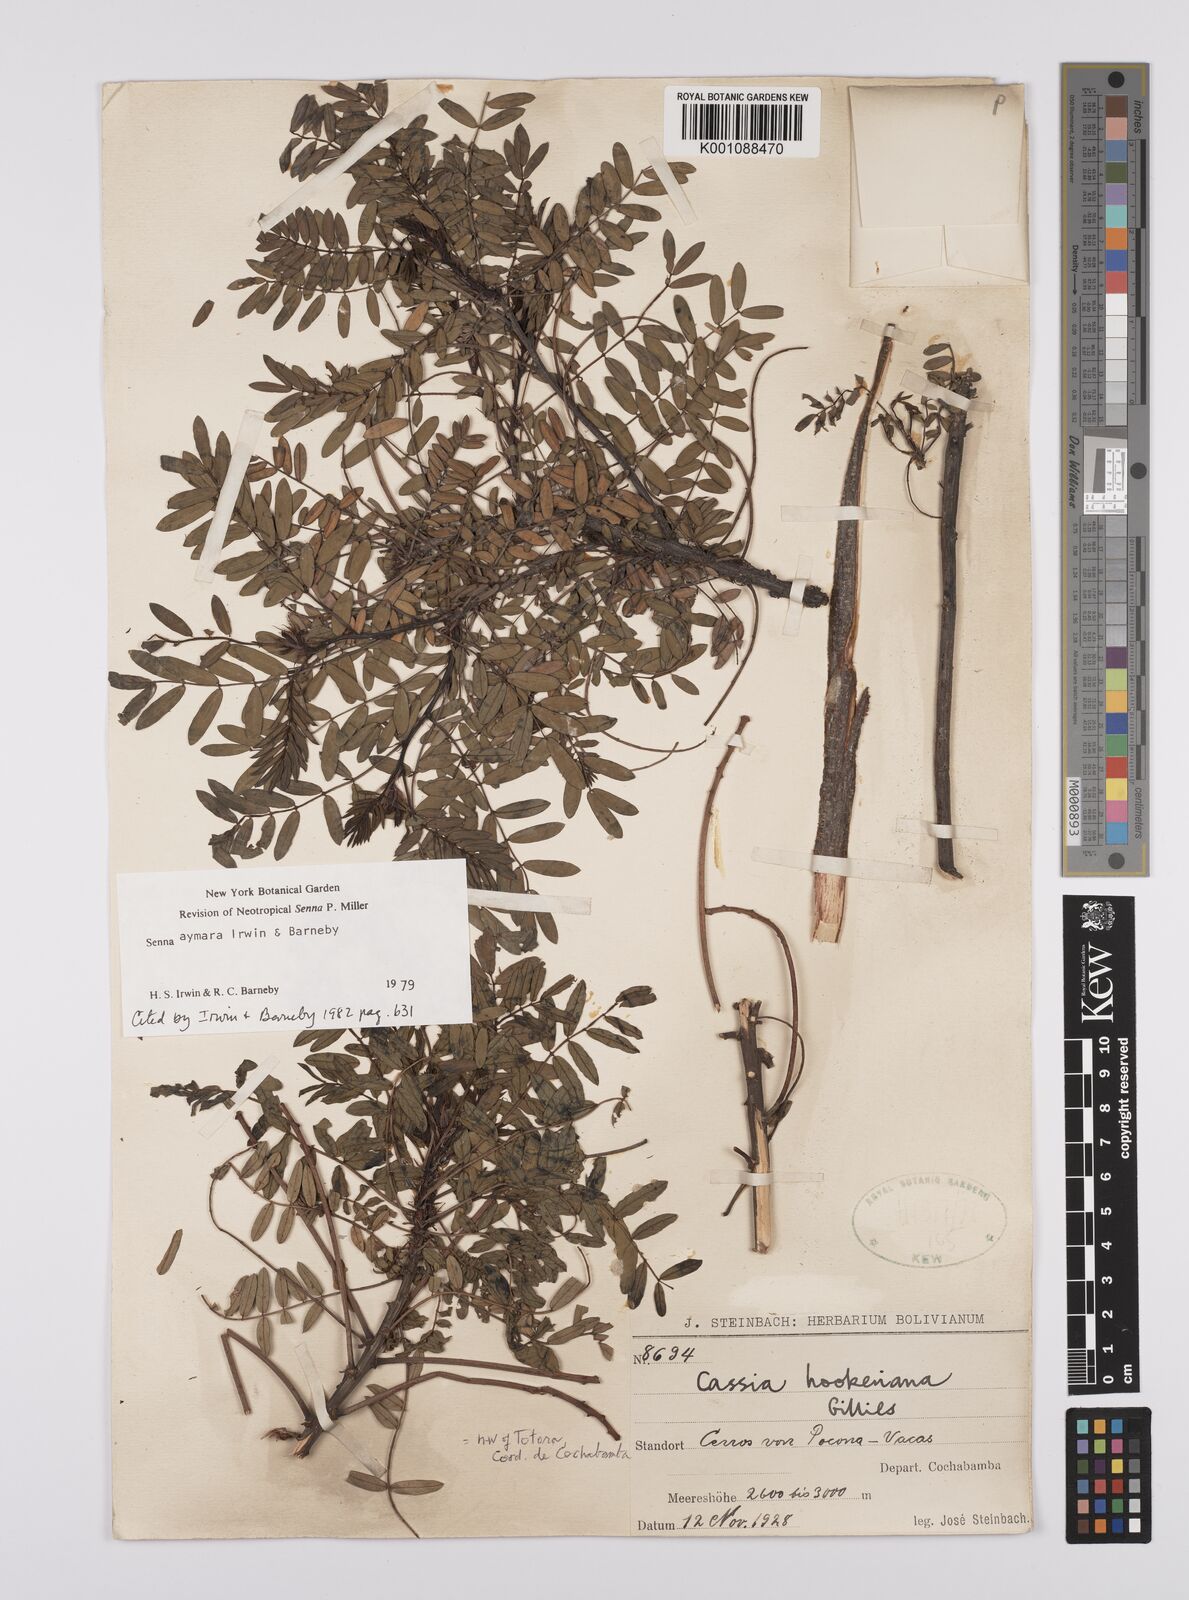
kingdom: Plantae
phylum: Tracheophyta
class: Magnoliopsida
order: Fabales
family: Fabaceae
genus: Senna
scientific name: Senna aymara
